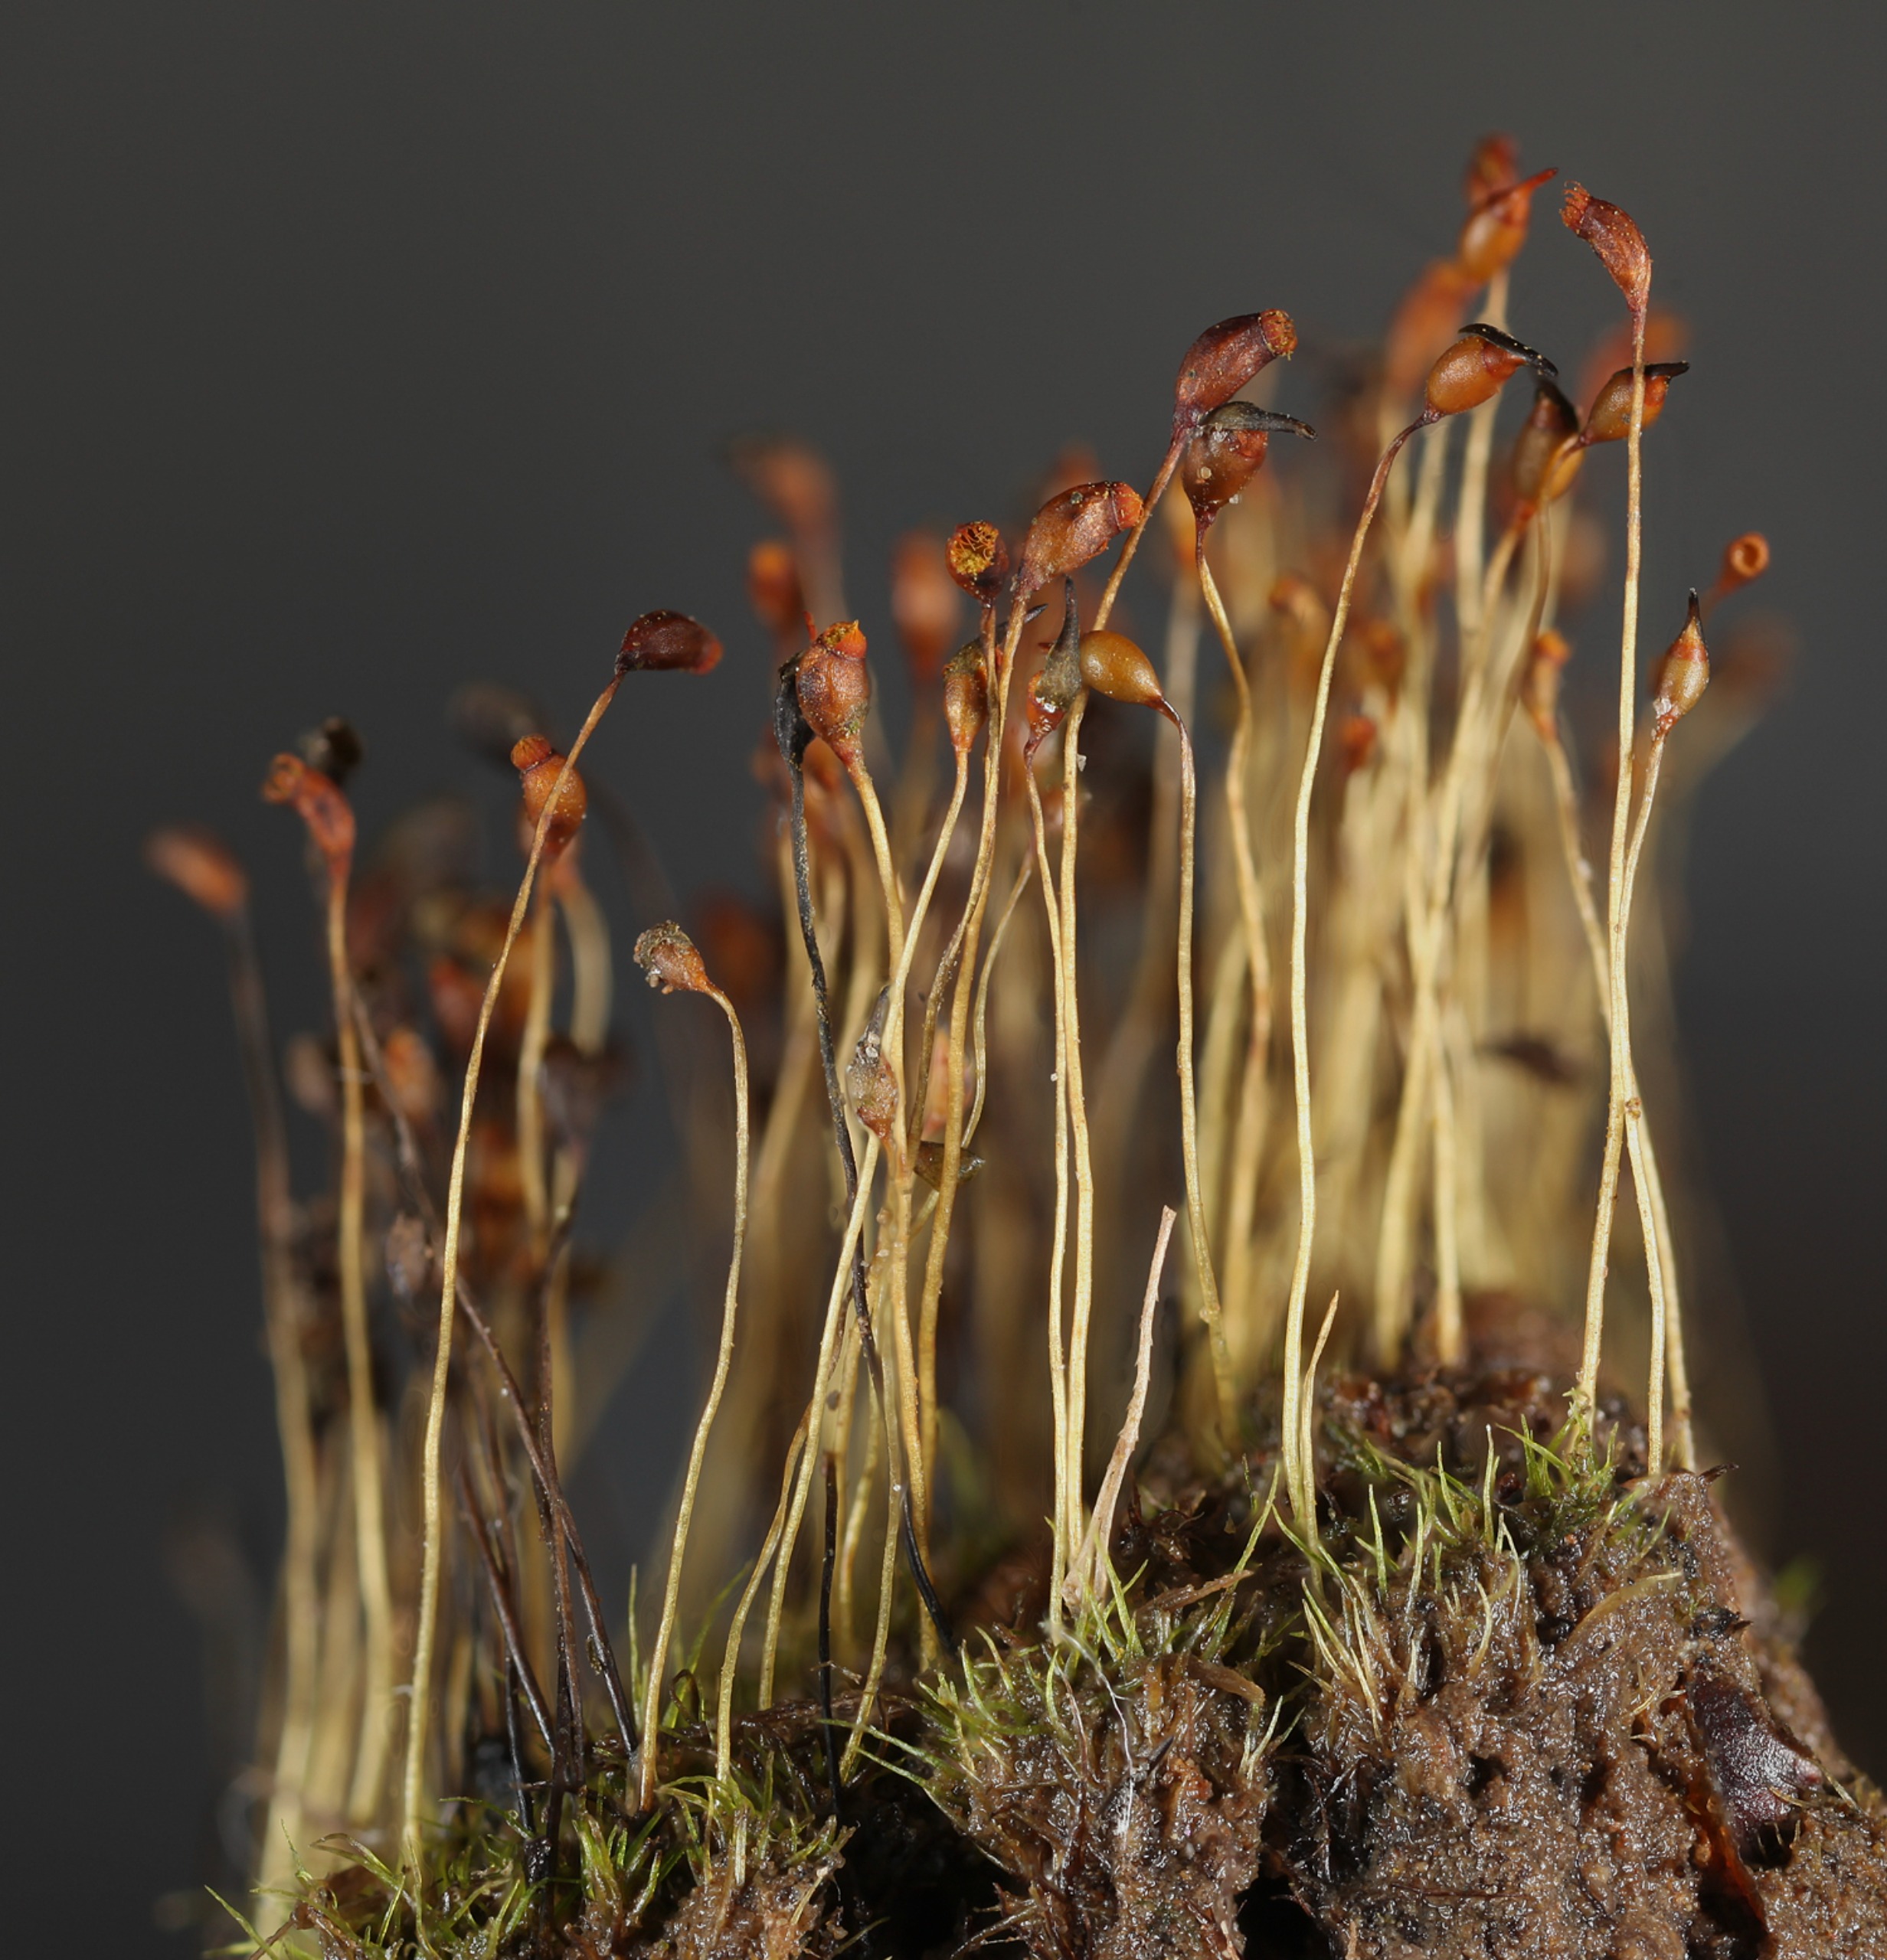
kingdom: Plantae
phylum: Bryophyta
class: Bryopsida
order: Dicranales
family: Dicranellaceae
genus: Dicranella
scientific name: Dicranella cerviculata
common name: Mose-fløjlsmos
